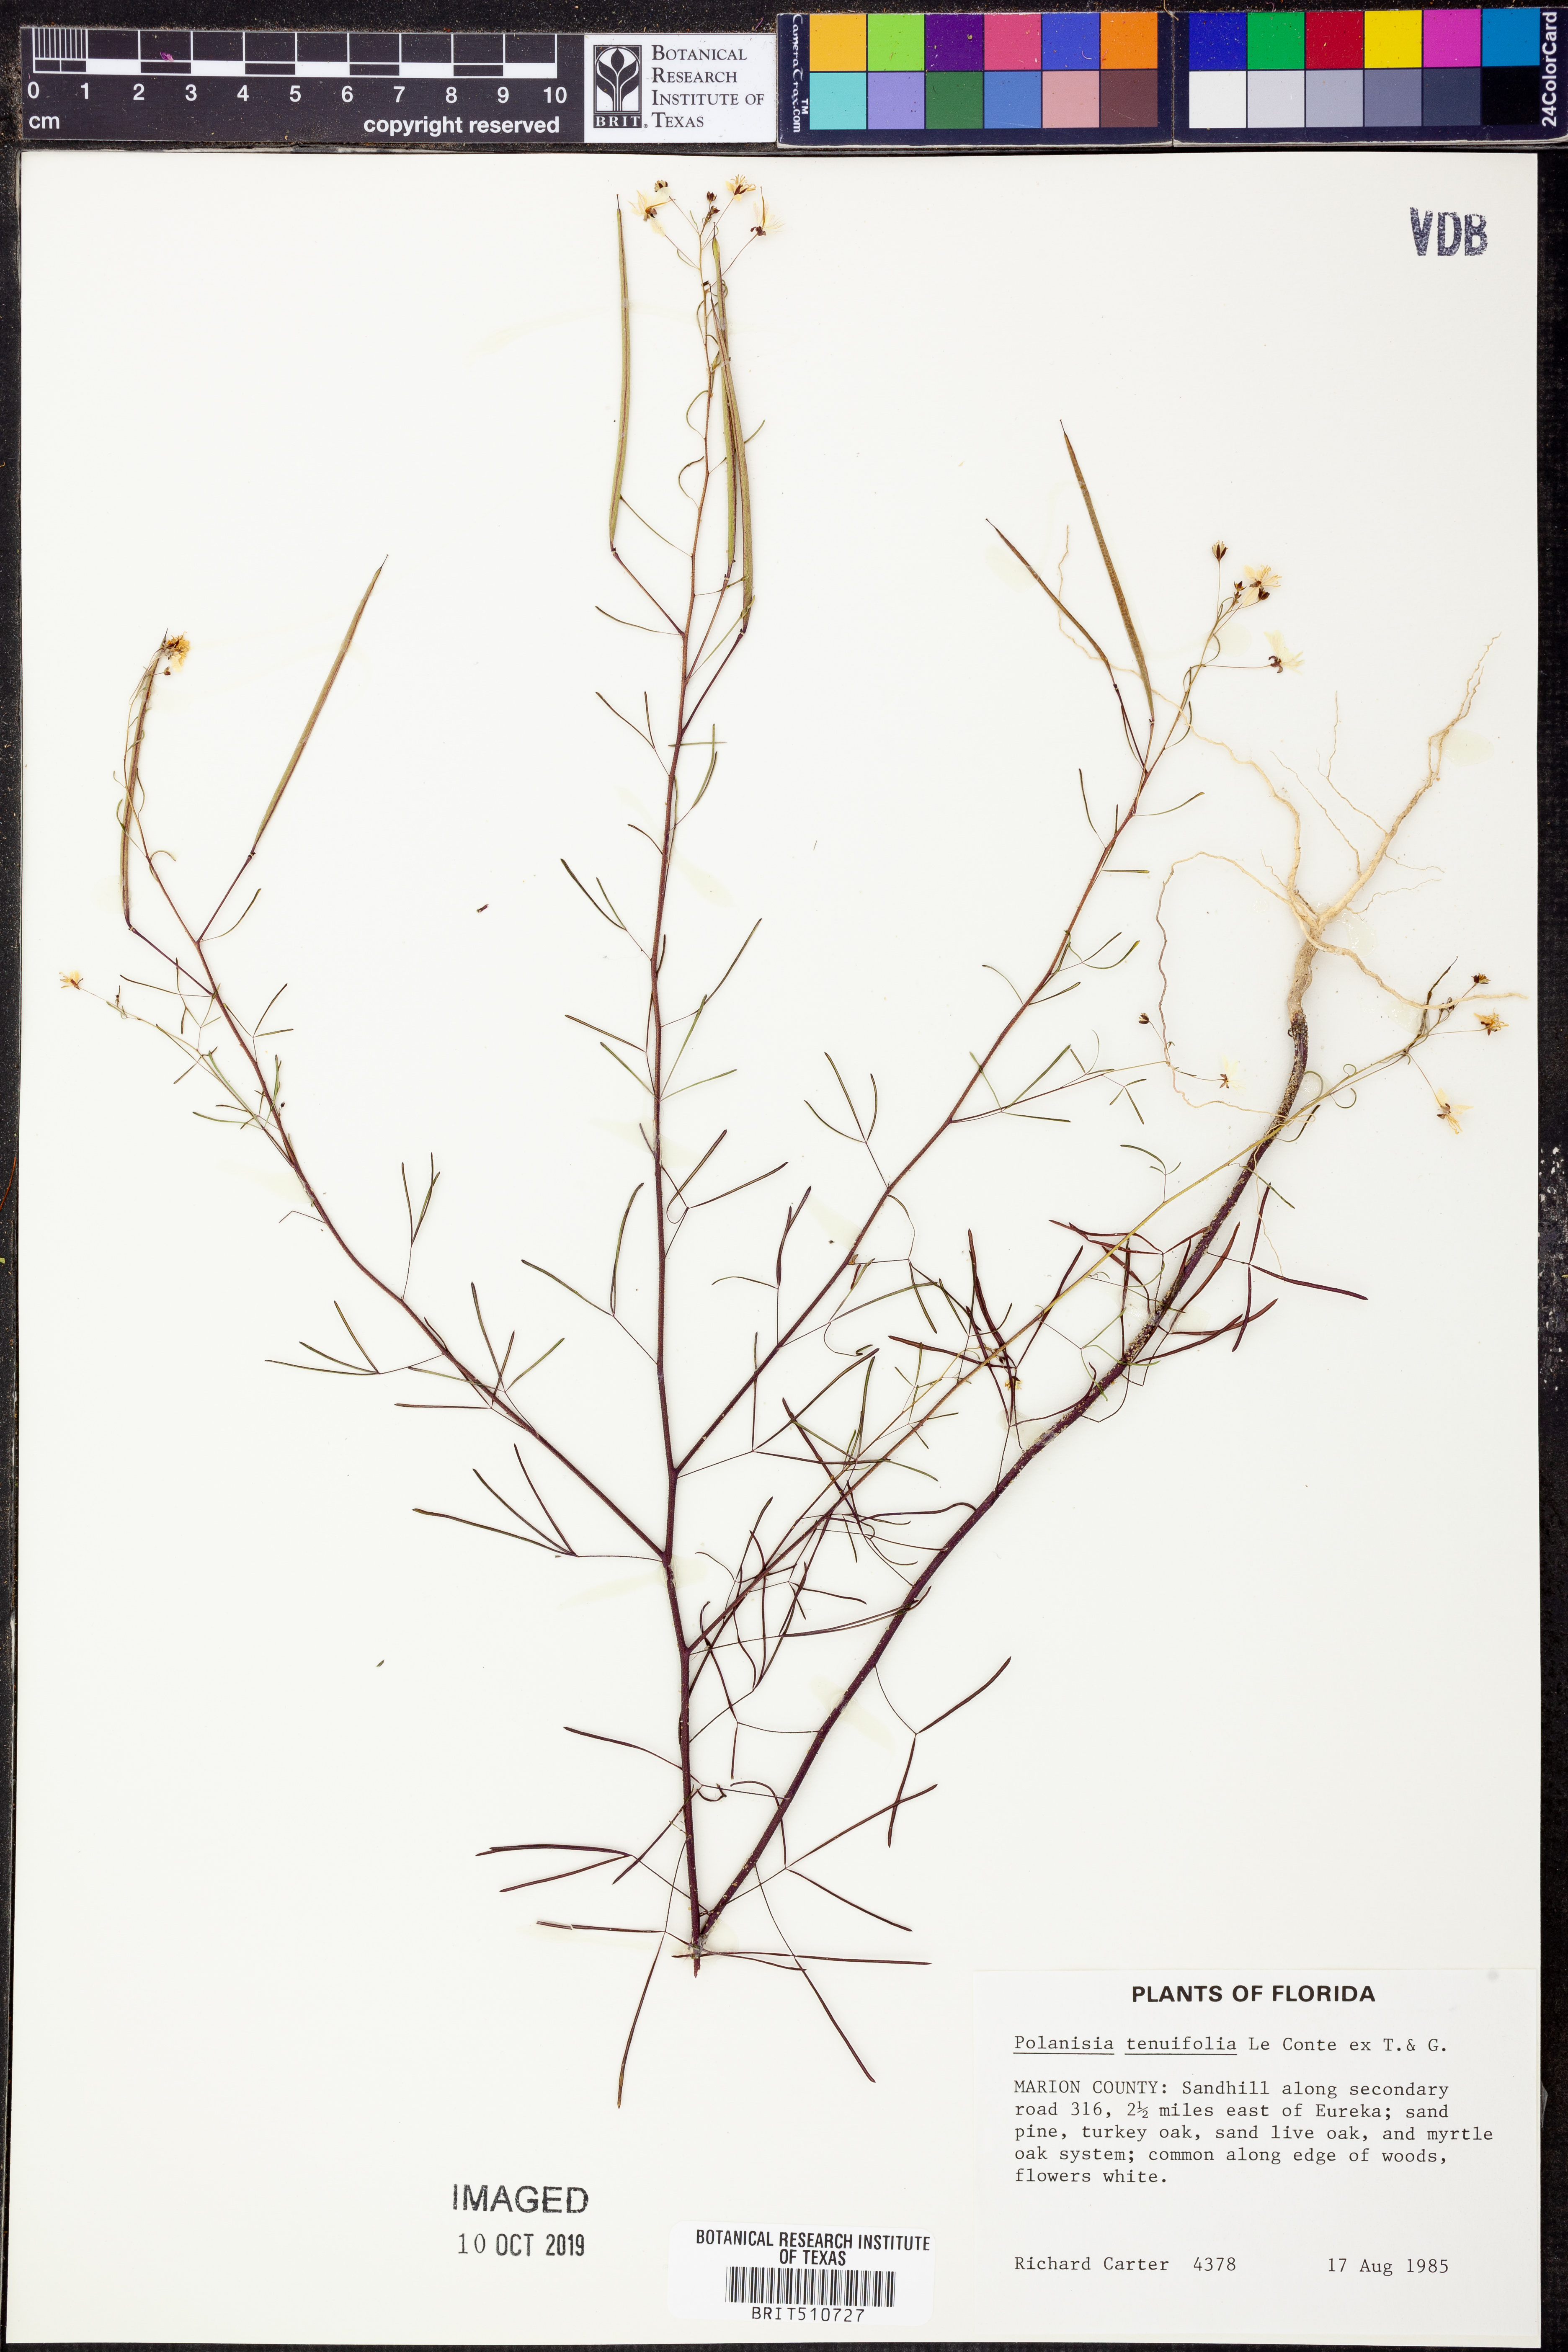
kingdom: Plantae
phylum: Tracheophyta
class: Magnoliopsida
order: Brassicales
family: Cleomaceae
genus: Polanisia
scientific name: Polanisia tenuifolia
